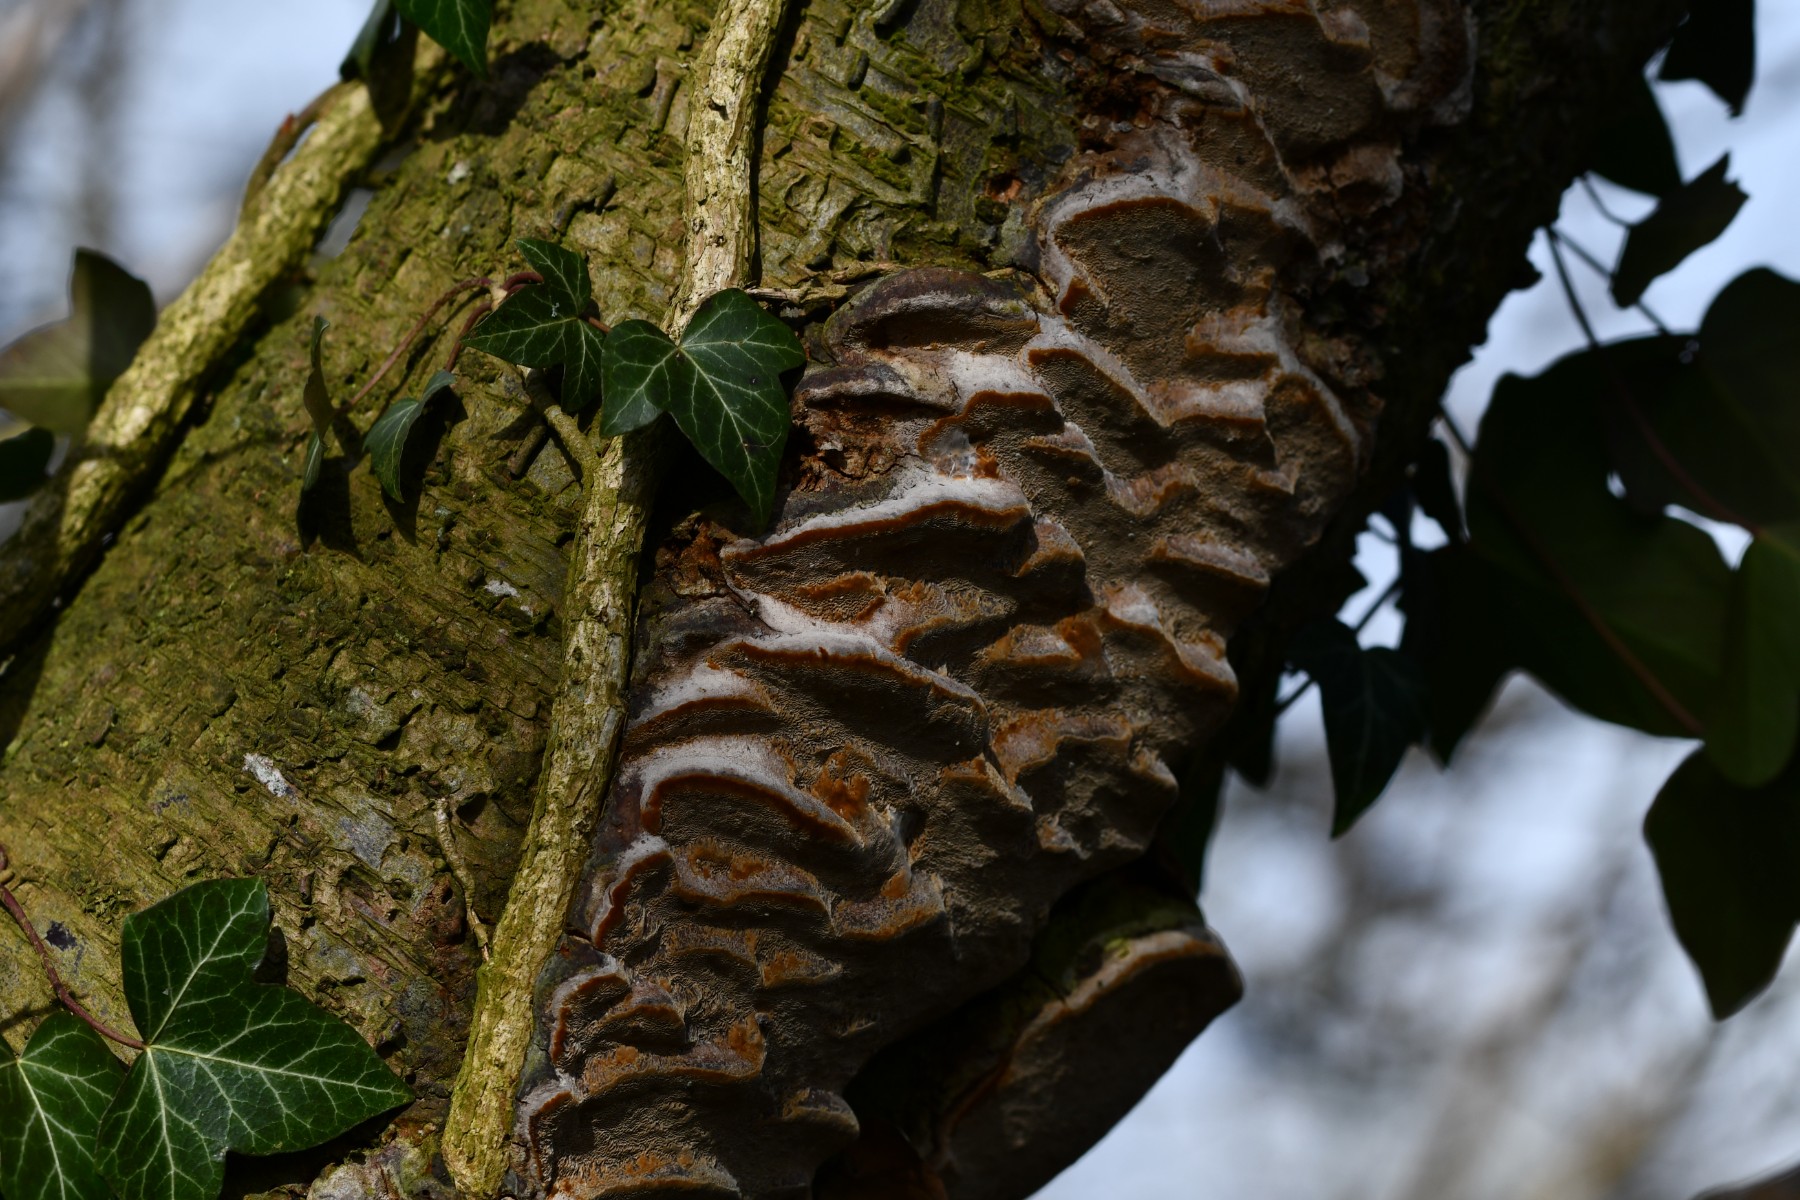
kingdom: Fungi
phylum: Basidiomycota
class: Agaricomycetes
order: Hymenochaetales
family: Hymenochaetaceae
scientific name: Hymenochaetaceae
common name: børstesvampfamilien
